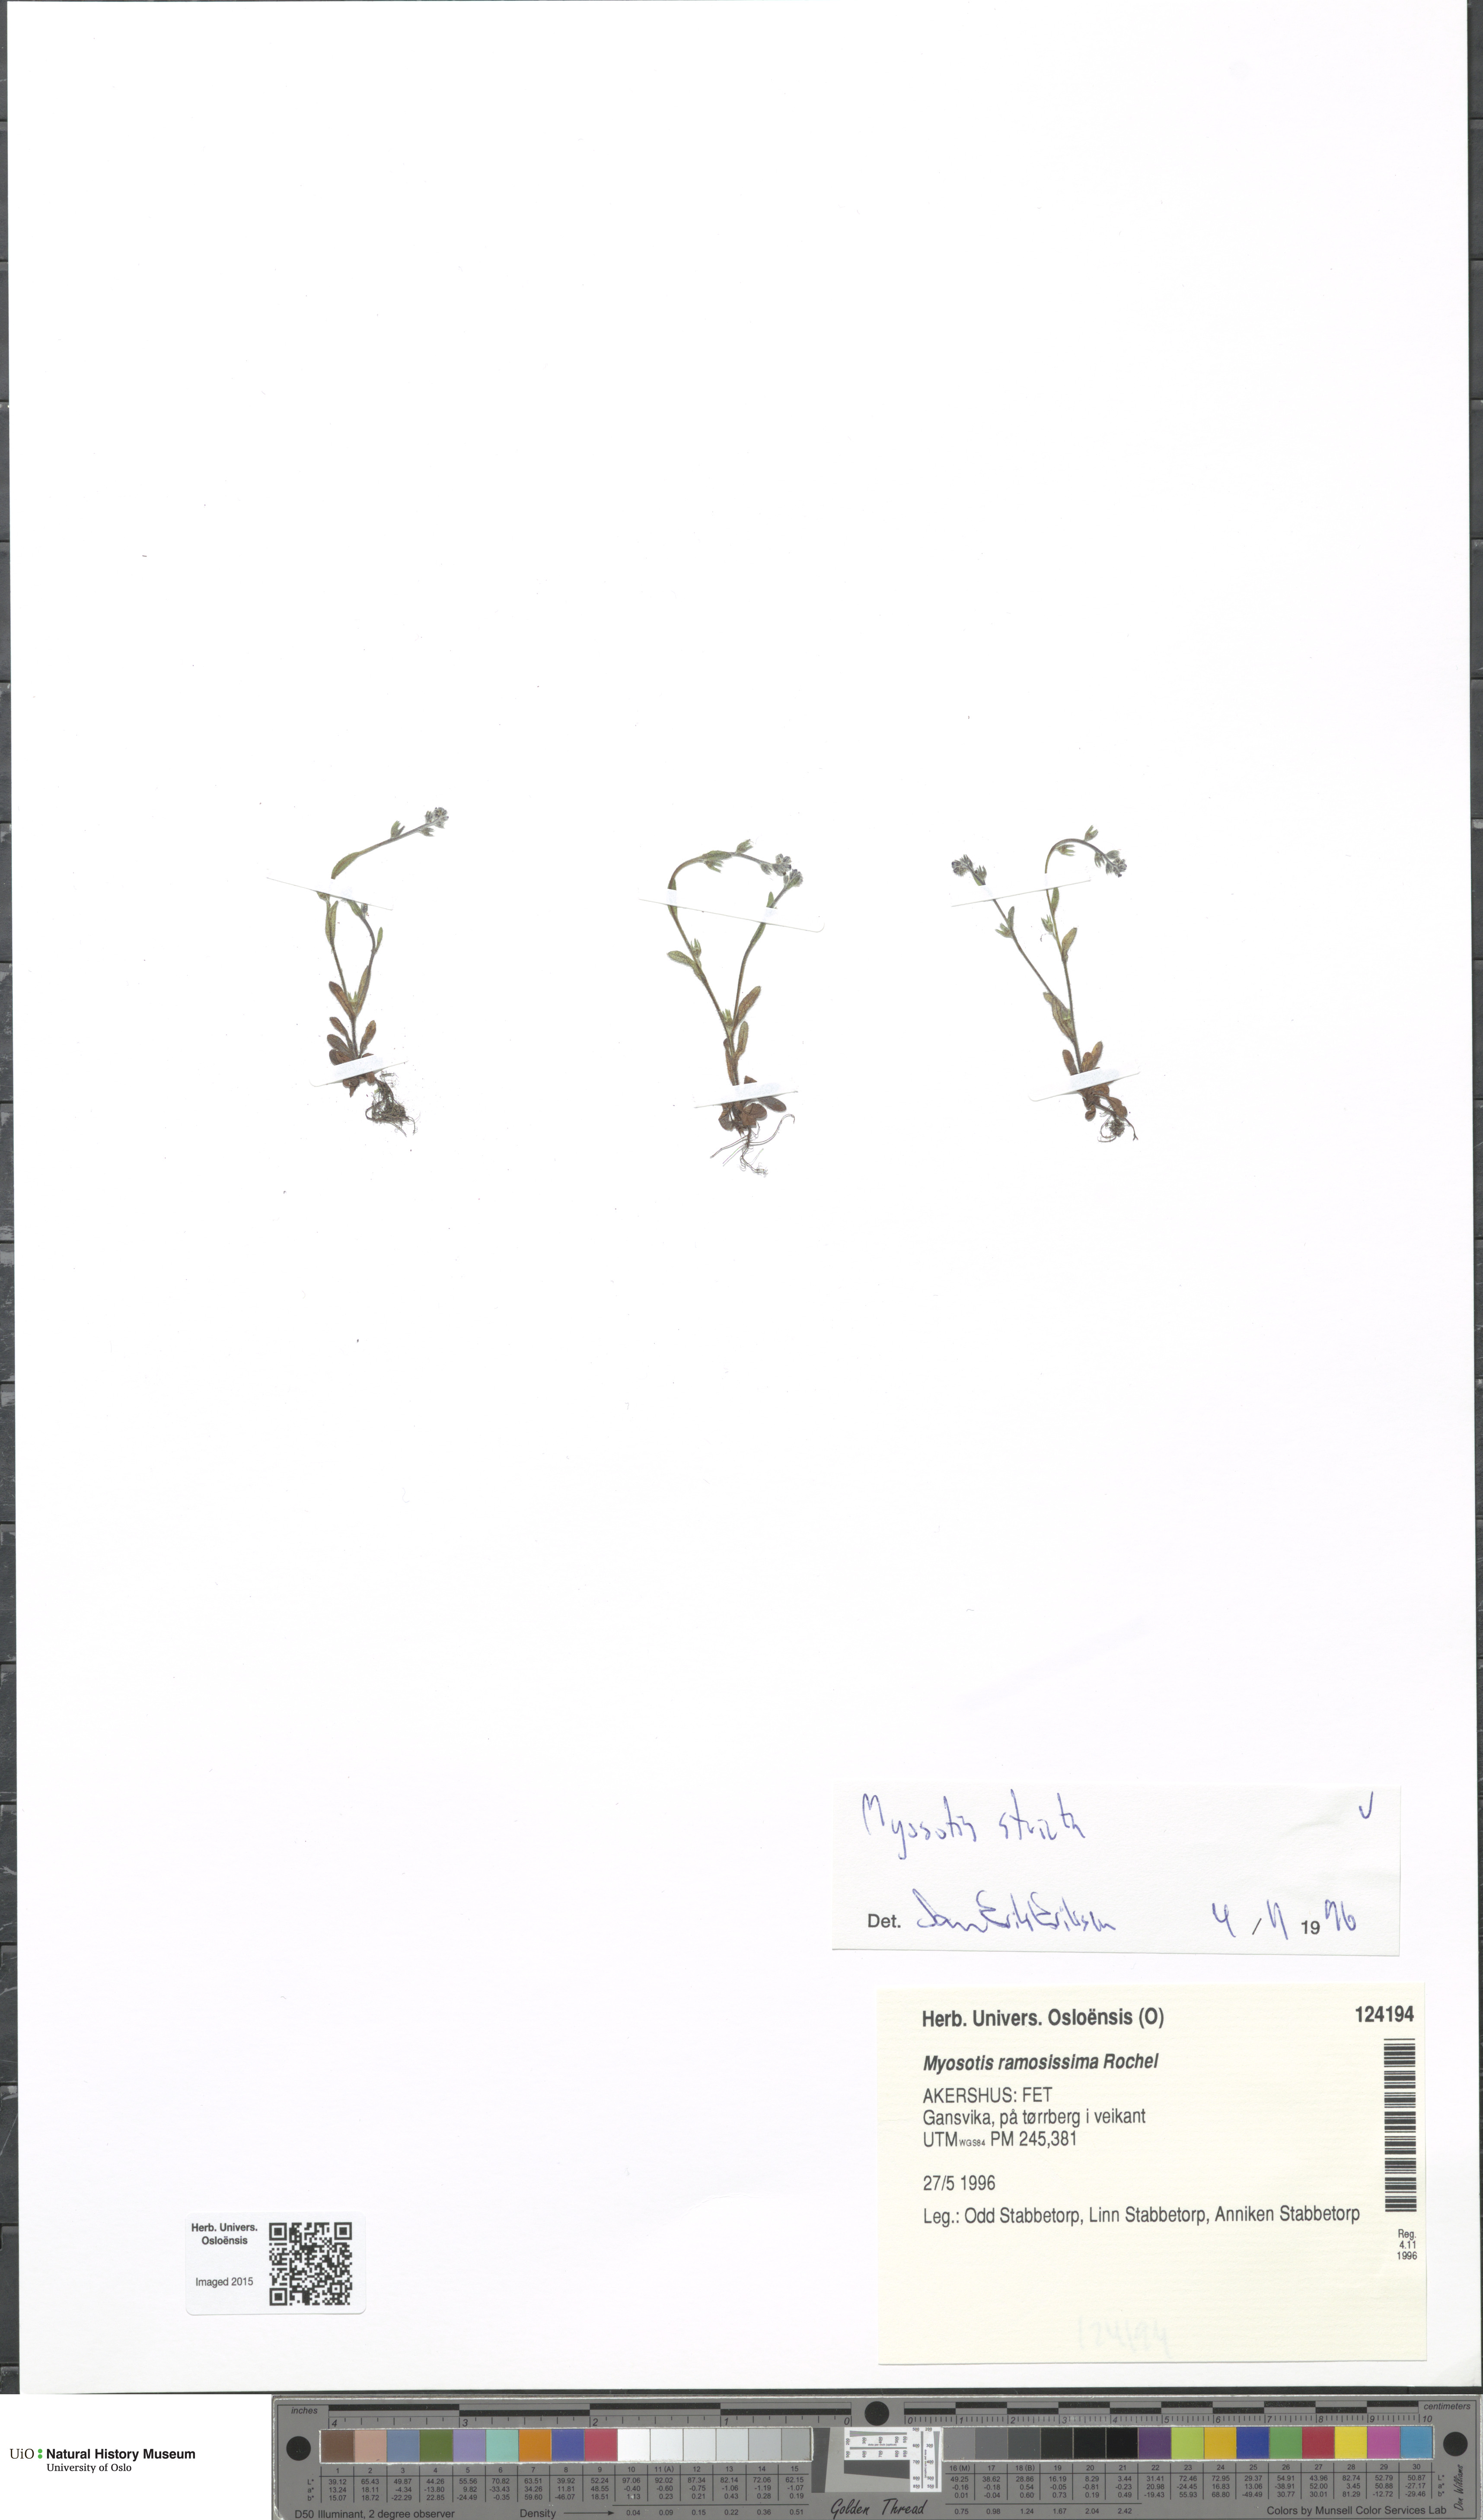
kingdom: Plantae
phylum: Tracheophyta
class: Magnoliopsida
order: Boraginales
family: Boraginaceae
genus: Myosotis
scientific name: Myosotis stricta
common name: Strict forget-me-not
